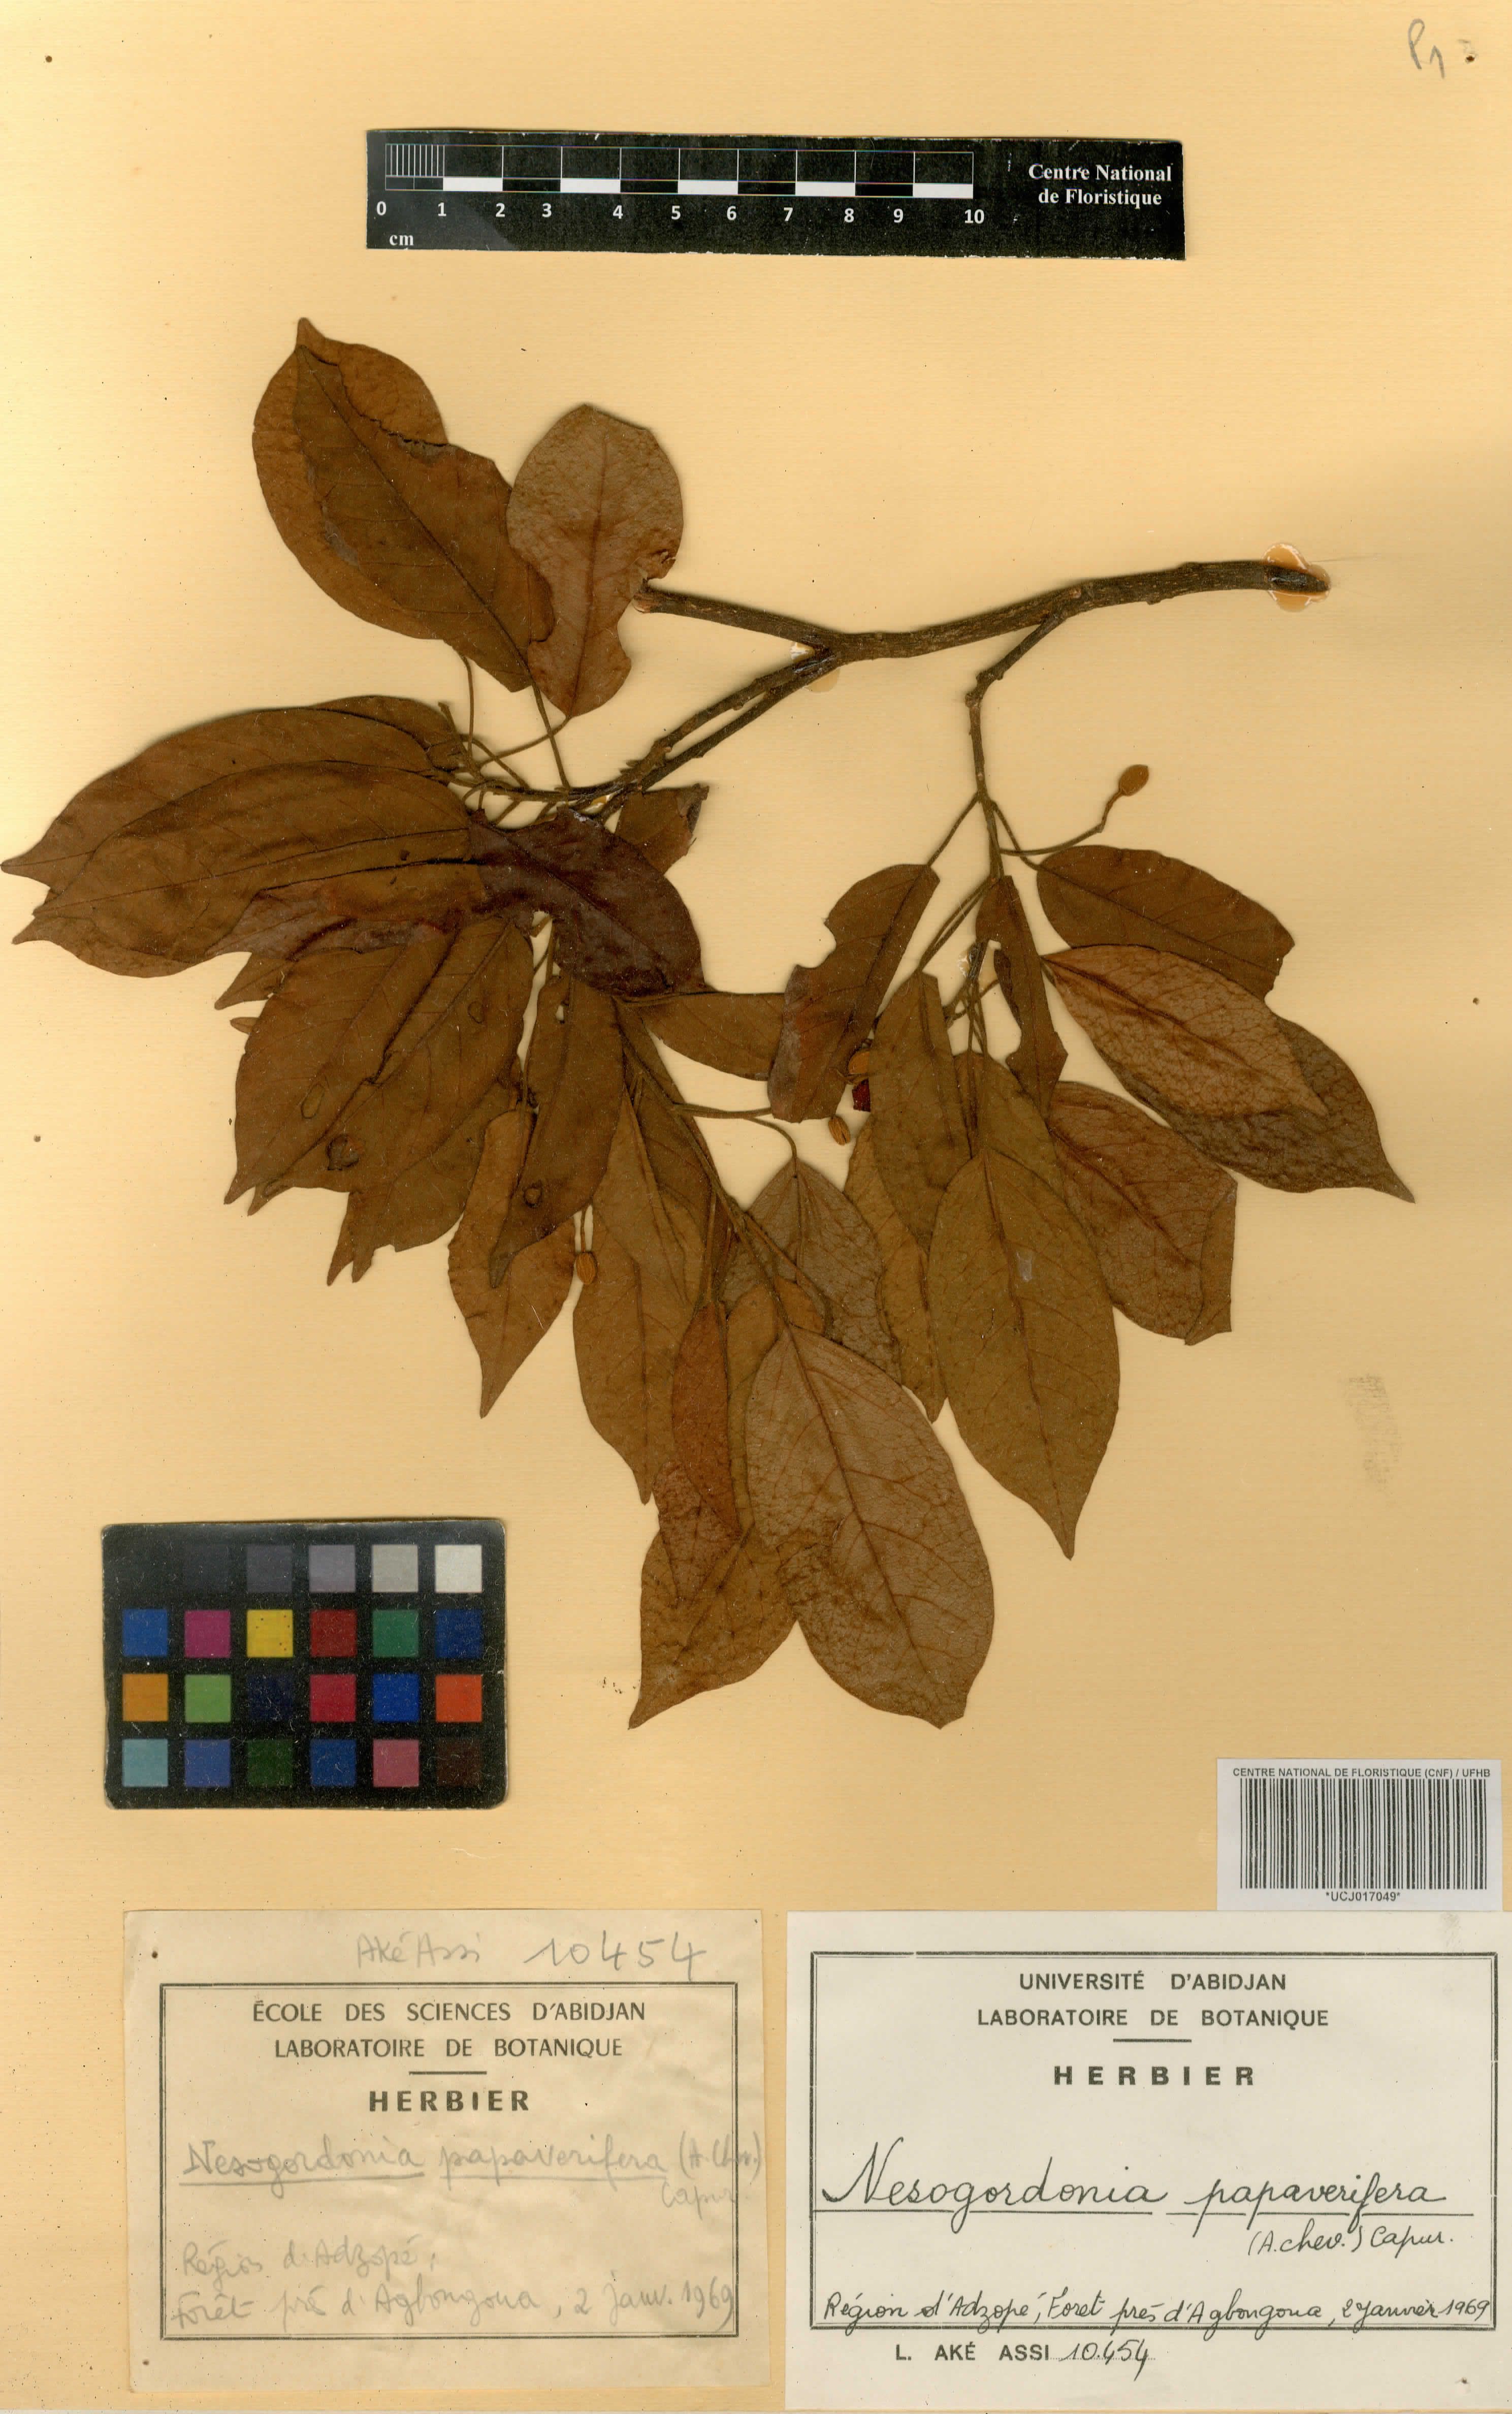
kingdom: Plantae
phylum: Tracheophyta
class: Magnoliopsida
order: Malvales
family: Malvaceae
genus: Nesogordonia
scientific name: Nesogordonia papaverifera
